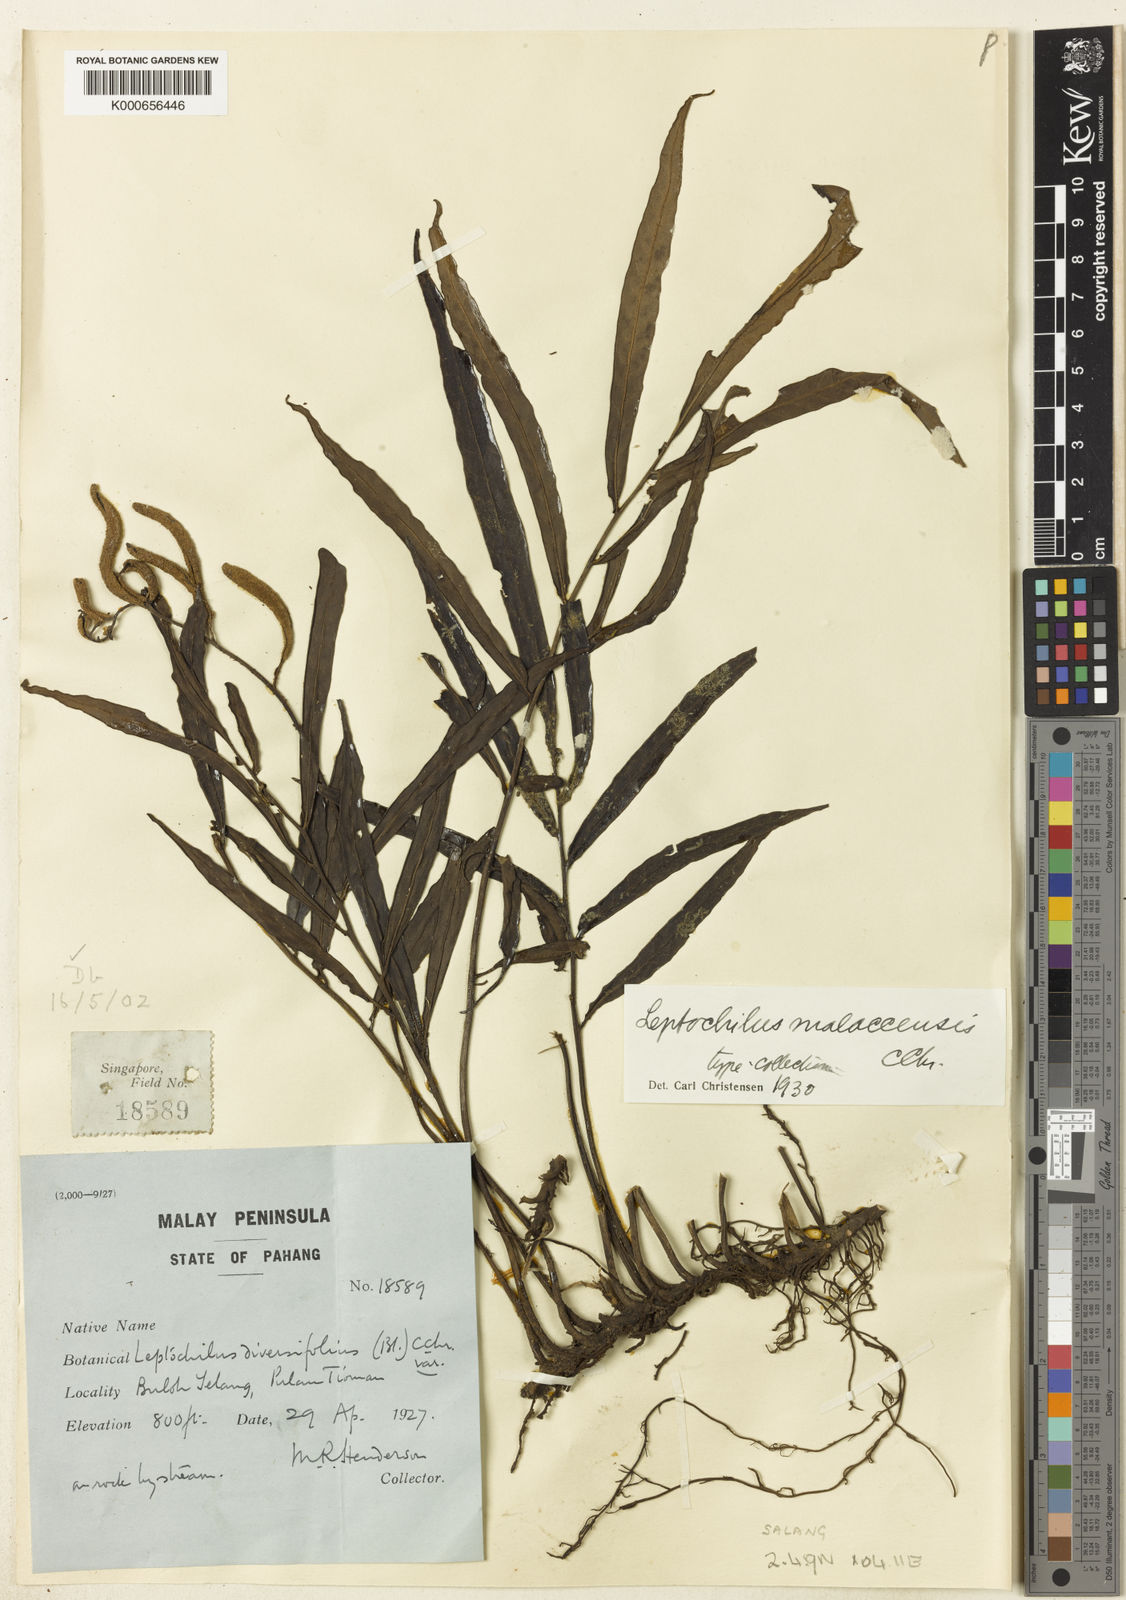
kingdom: Plantae
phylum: Tracheophyta
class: Polypodiopsida
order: Polypodiales
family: Dryopteridaceae
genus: Bolbitis
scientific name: Bolbitis sinuata
